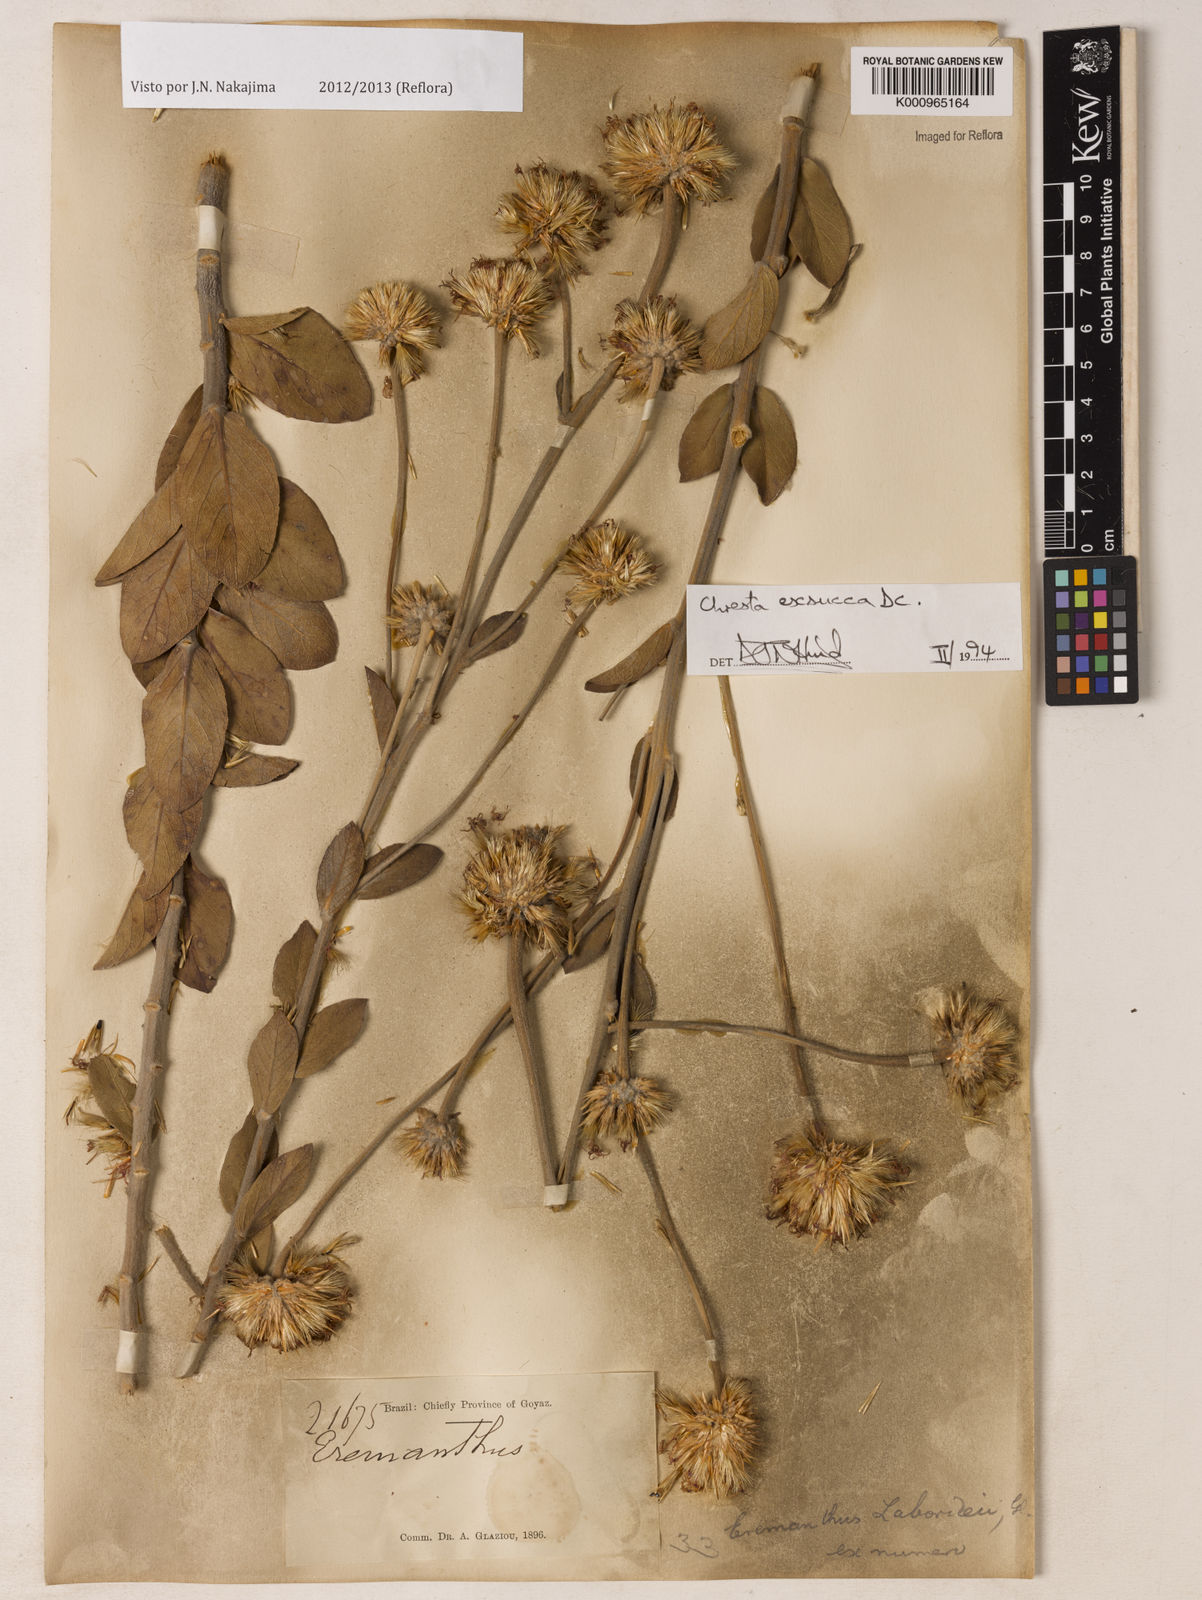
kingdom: Plantae
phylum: Tracheophyta
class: Magnoliopsida
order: Asterales
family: Asteraceae
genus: Chresta
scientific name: Chresta exsucca
